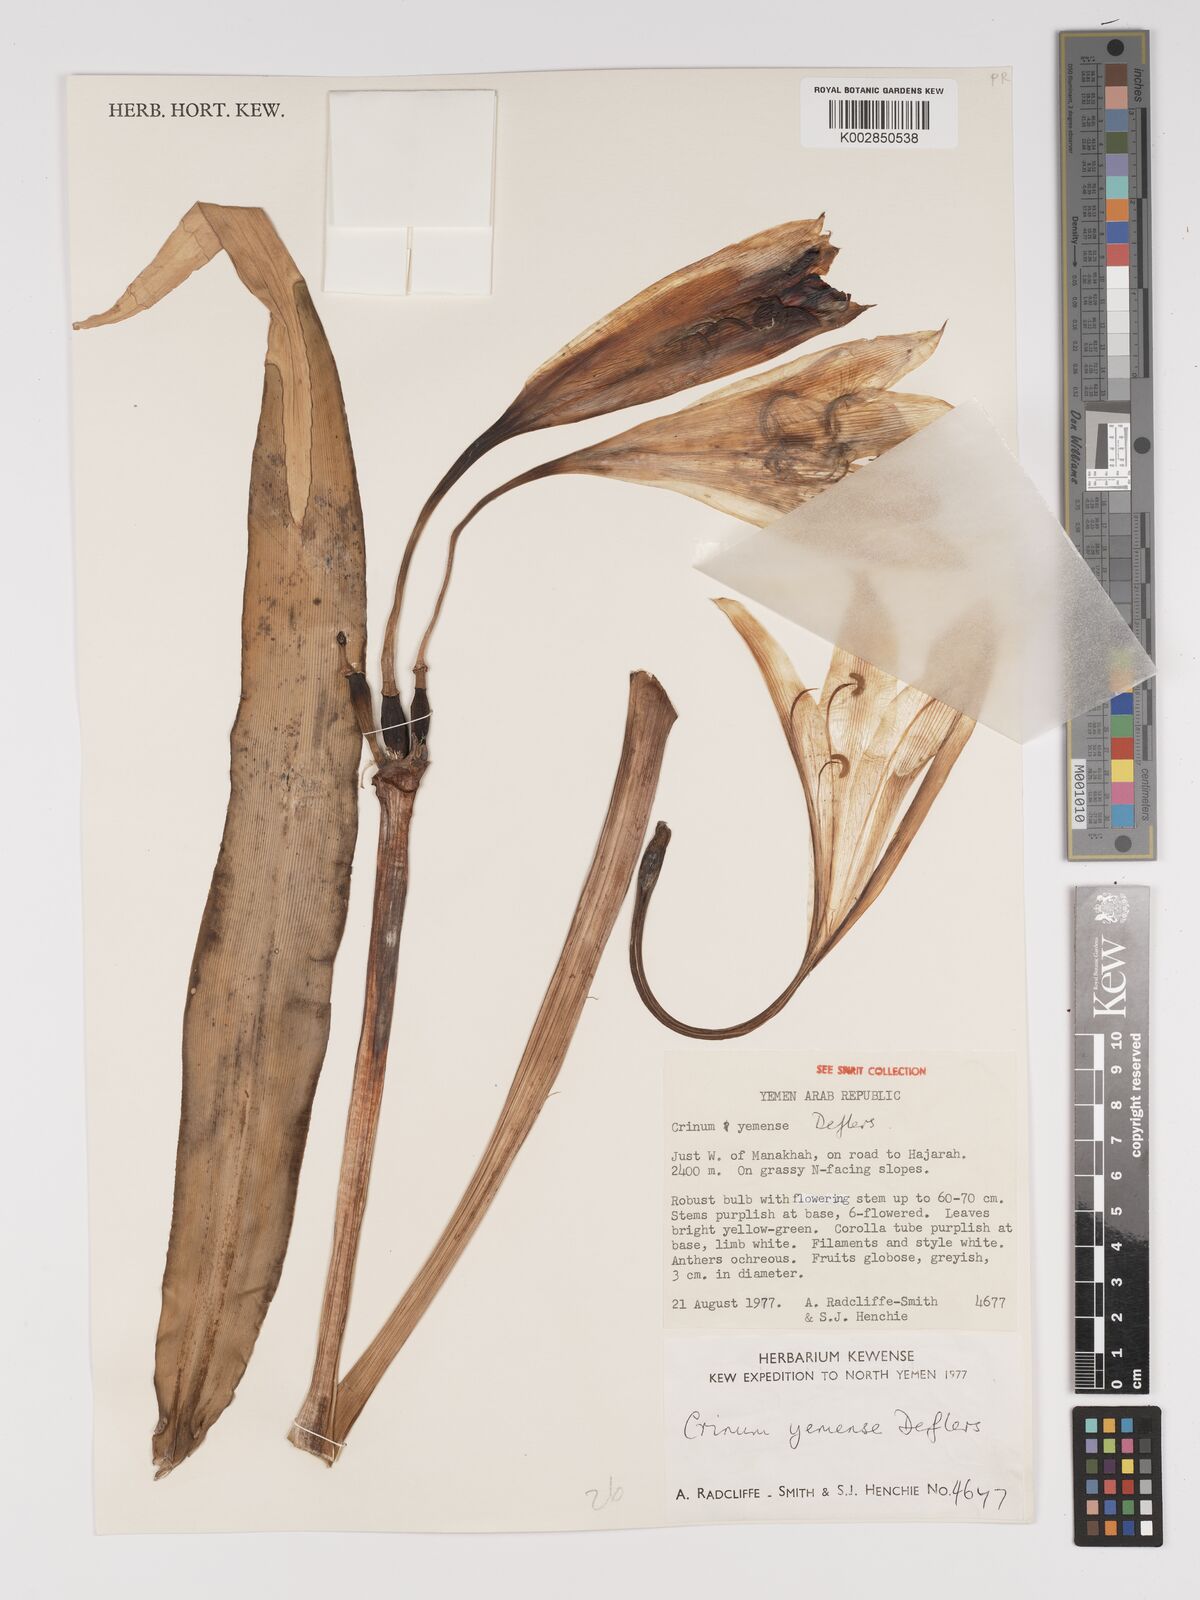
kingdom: Plantae
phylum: Tracheophyta
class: Liliopsida
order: Asparagales
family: Amaryllidaceae
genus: Crinum
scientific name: Crinum album
